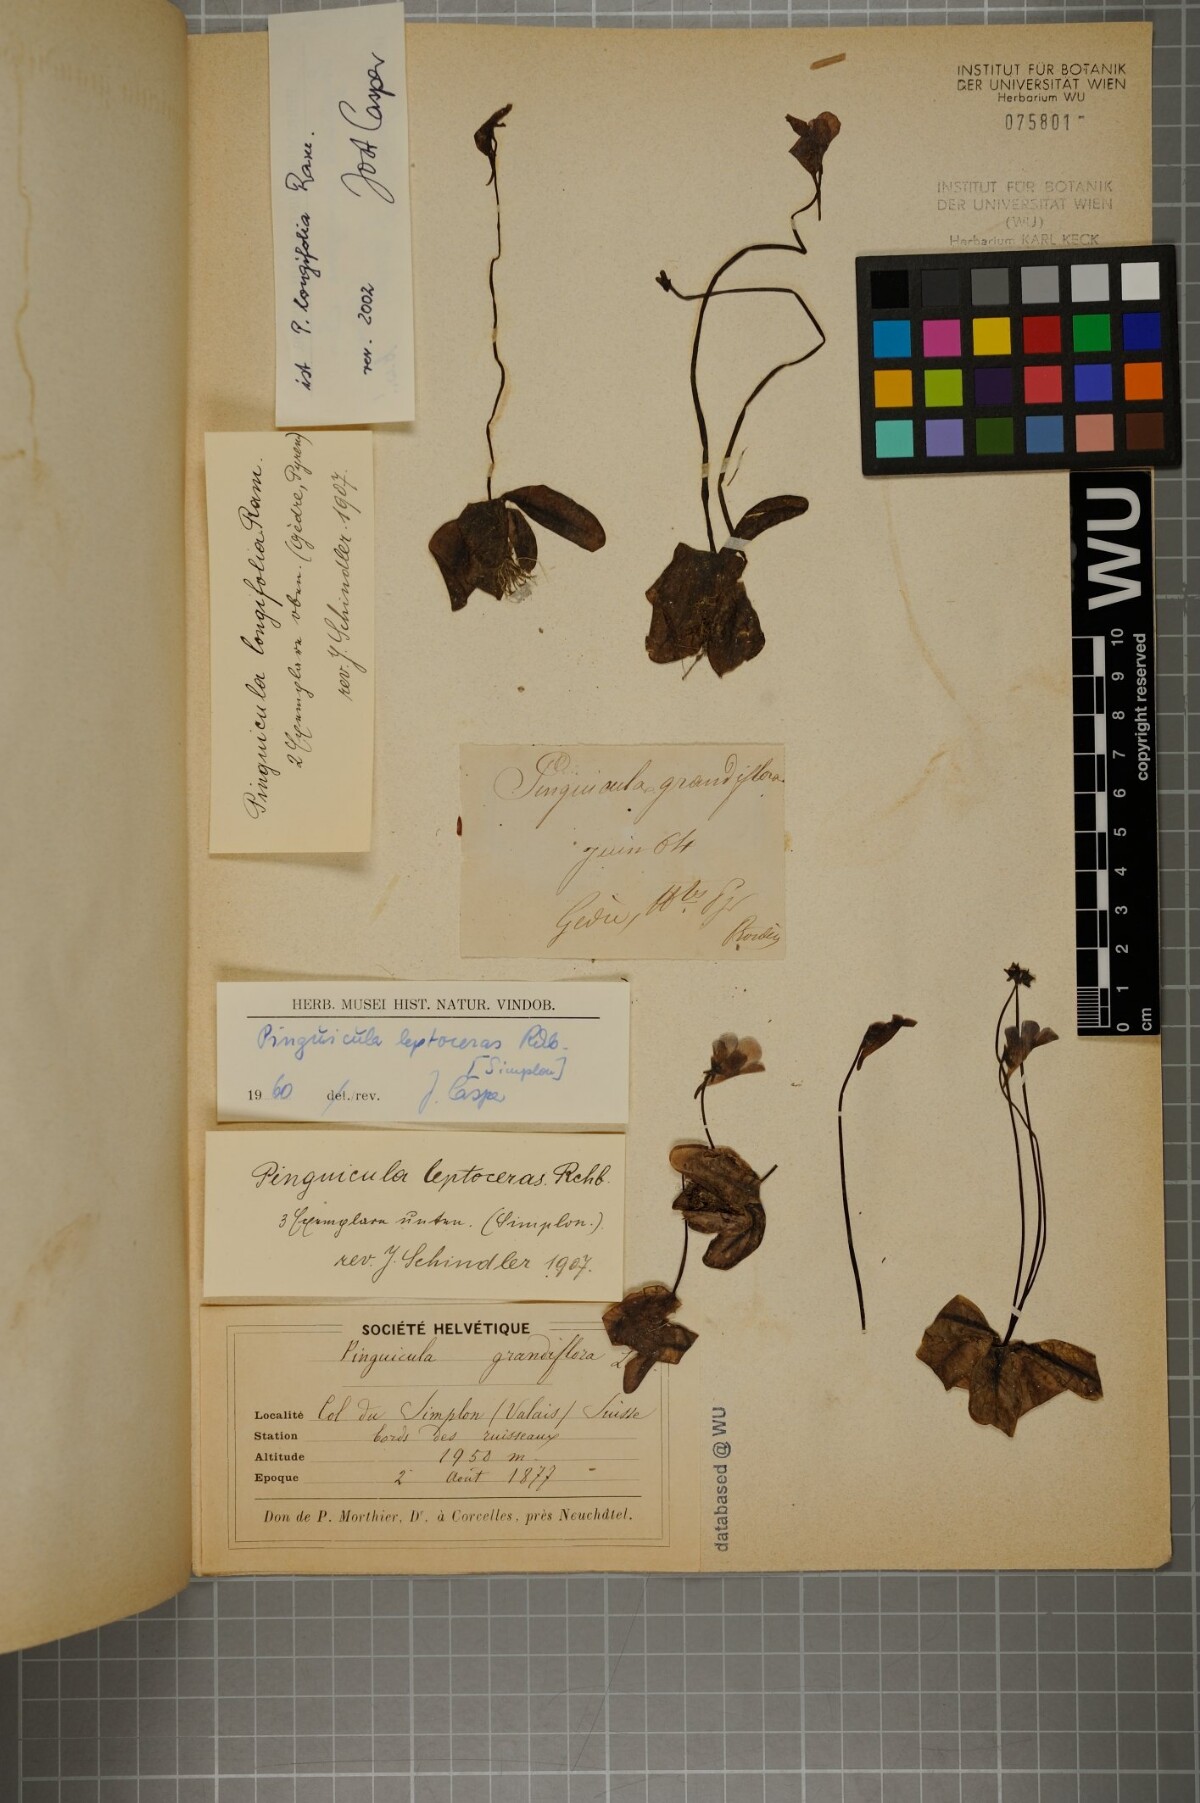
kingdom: Plantae
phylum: Tracheophyta
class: Magnoliopsida
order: Lamiales
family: Lentibulariaceae
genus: Pinguicula
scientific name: Pinguicula longifolia
